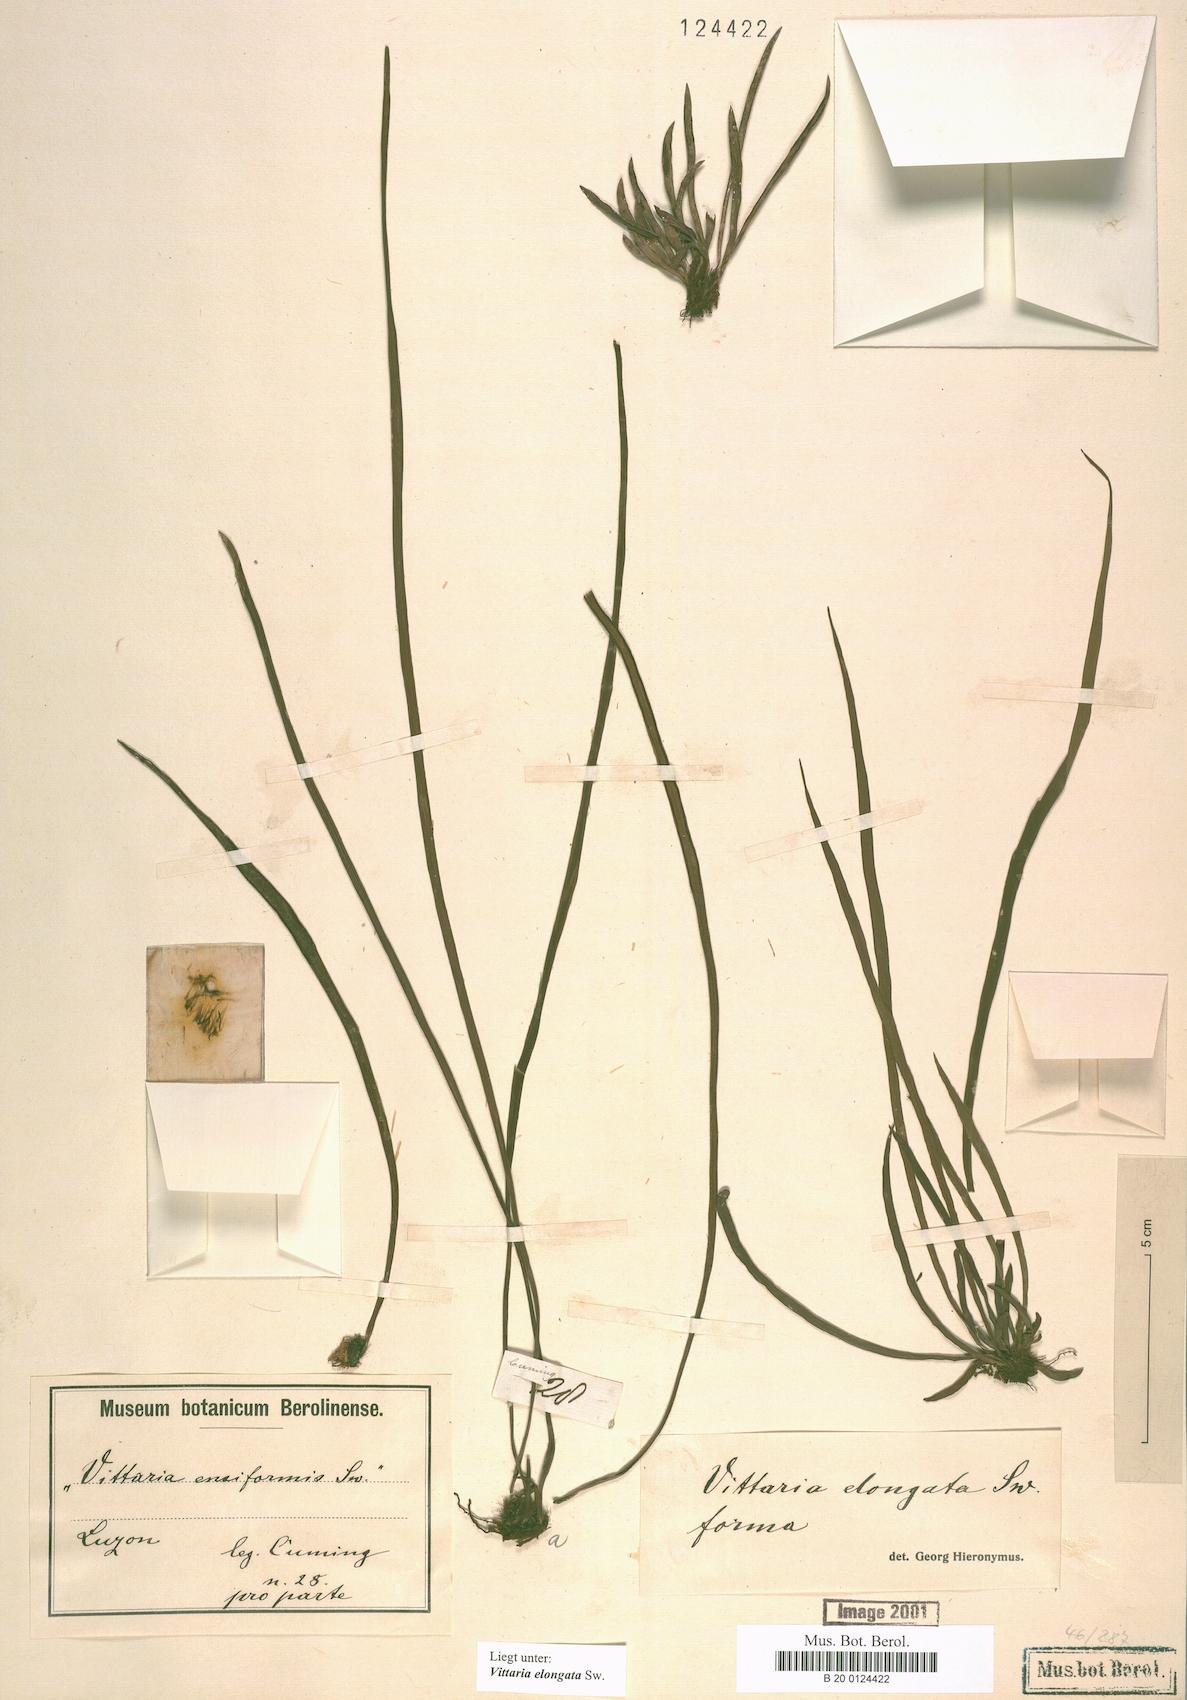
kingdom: Plantae
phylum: Tracheophyta
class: Polypodiopsida
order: Polypodiales
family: Pteridaceae
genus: Haplopteris
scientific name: Haplopteris ensiformis
